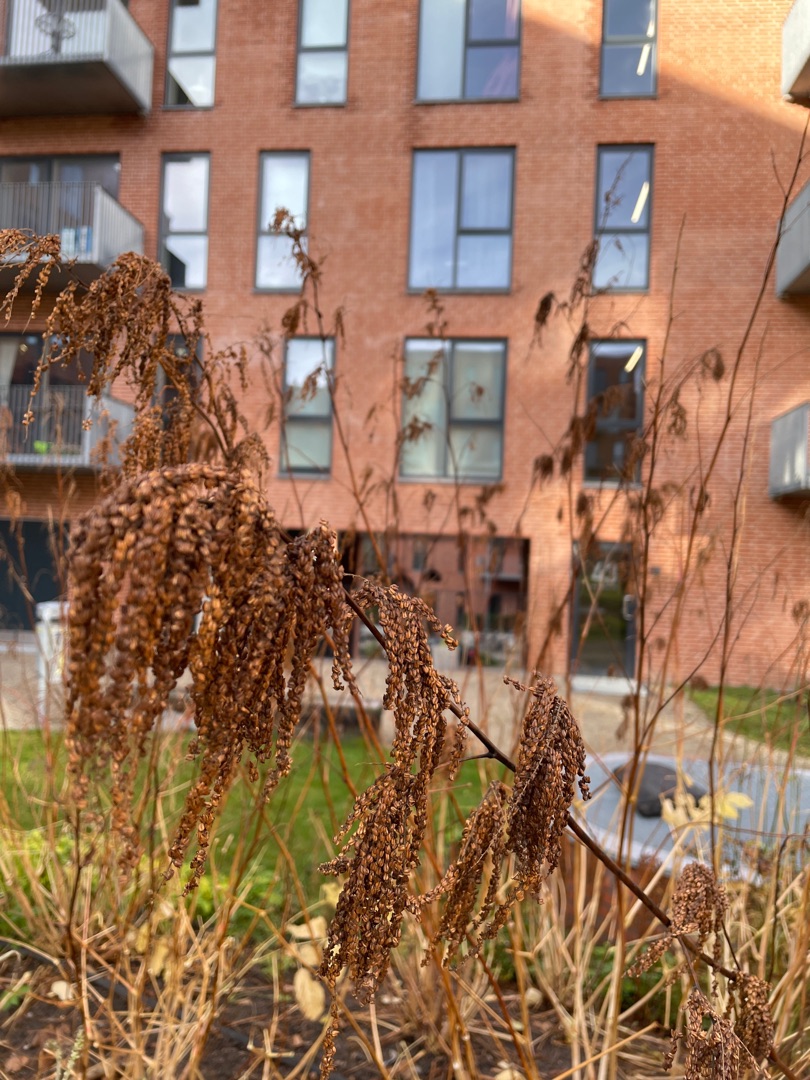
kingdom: Plantae
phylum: Tracheophyta
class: Magnoliopsida
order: Rosales
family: Rosaceae
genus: Aruncus
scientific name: Aruncus dioicus
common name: Fjerbusk
